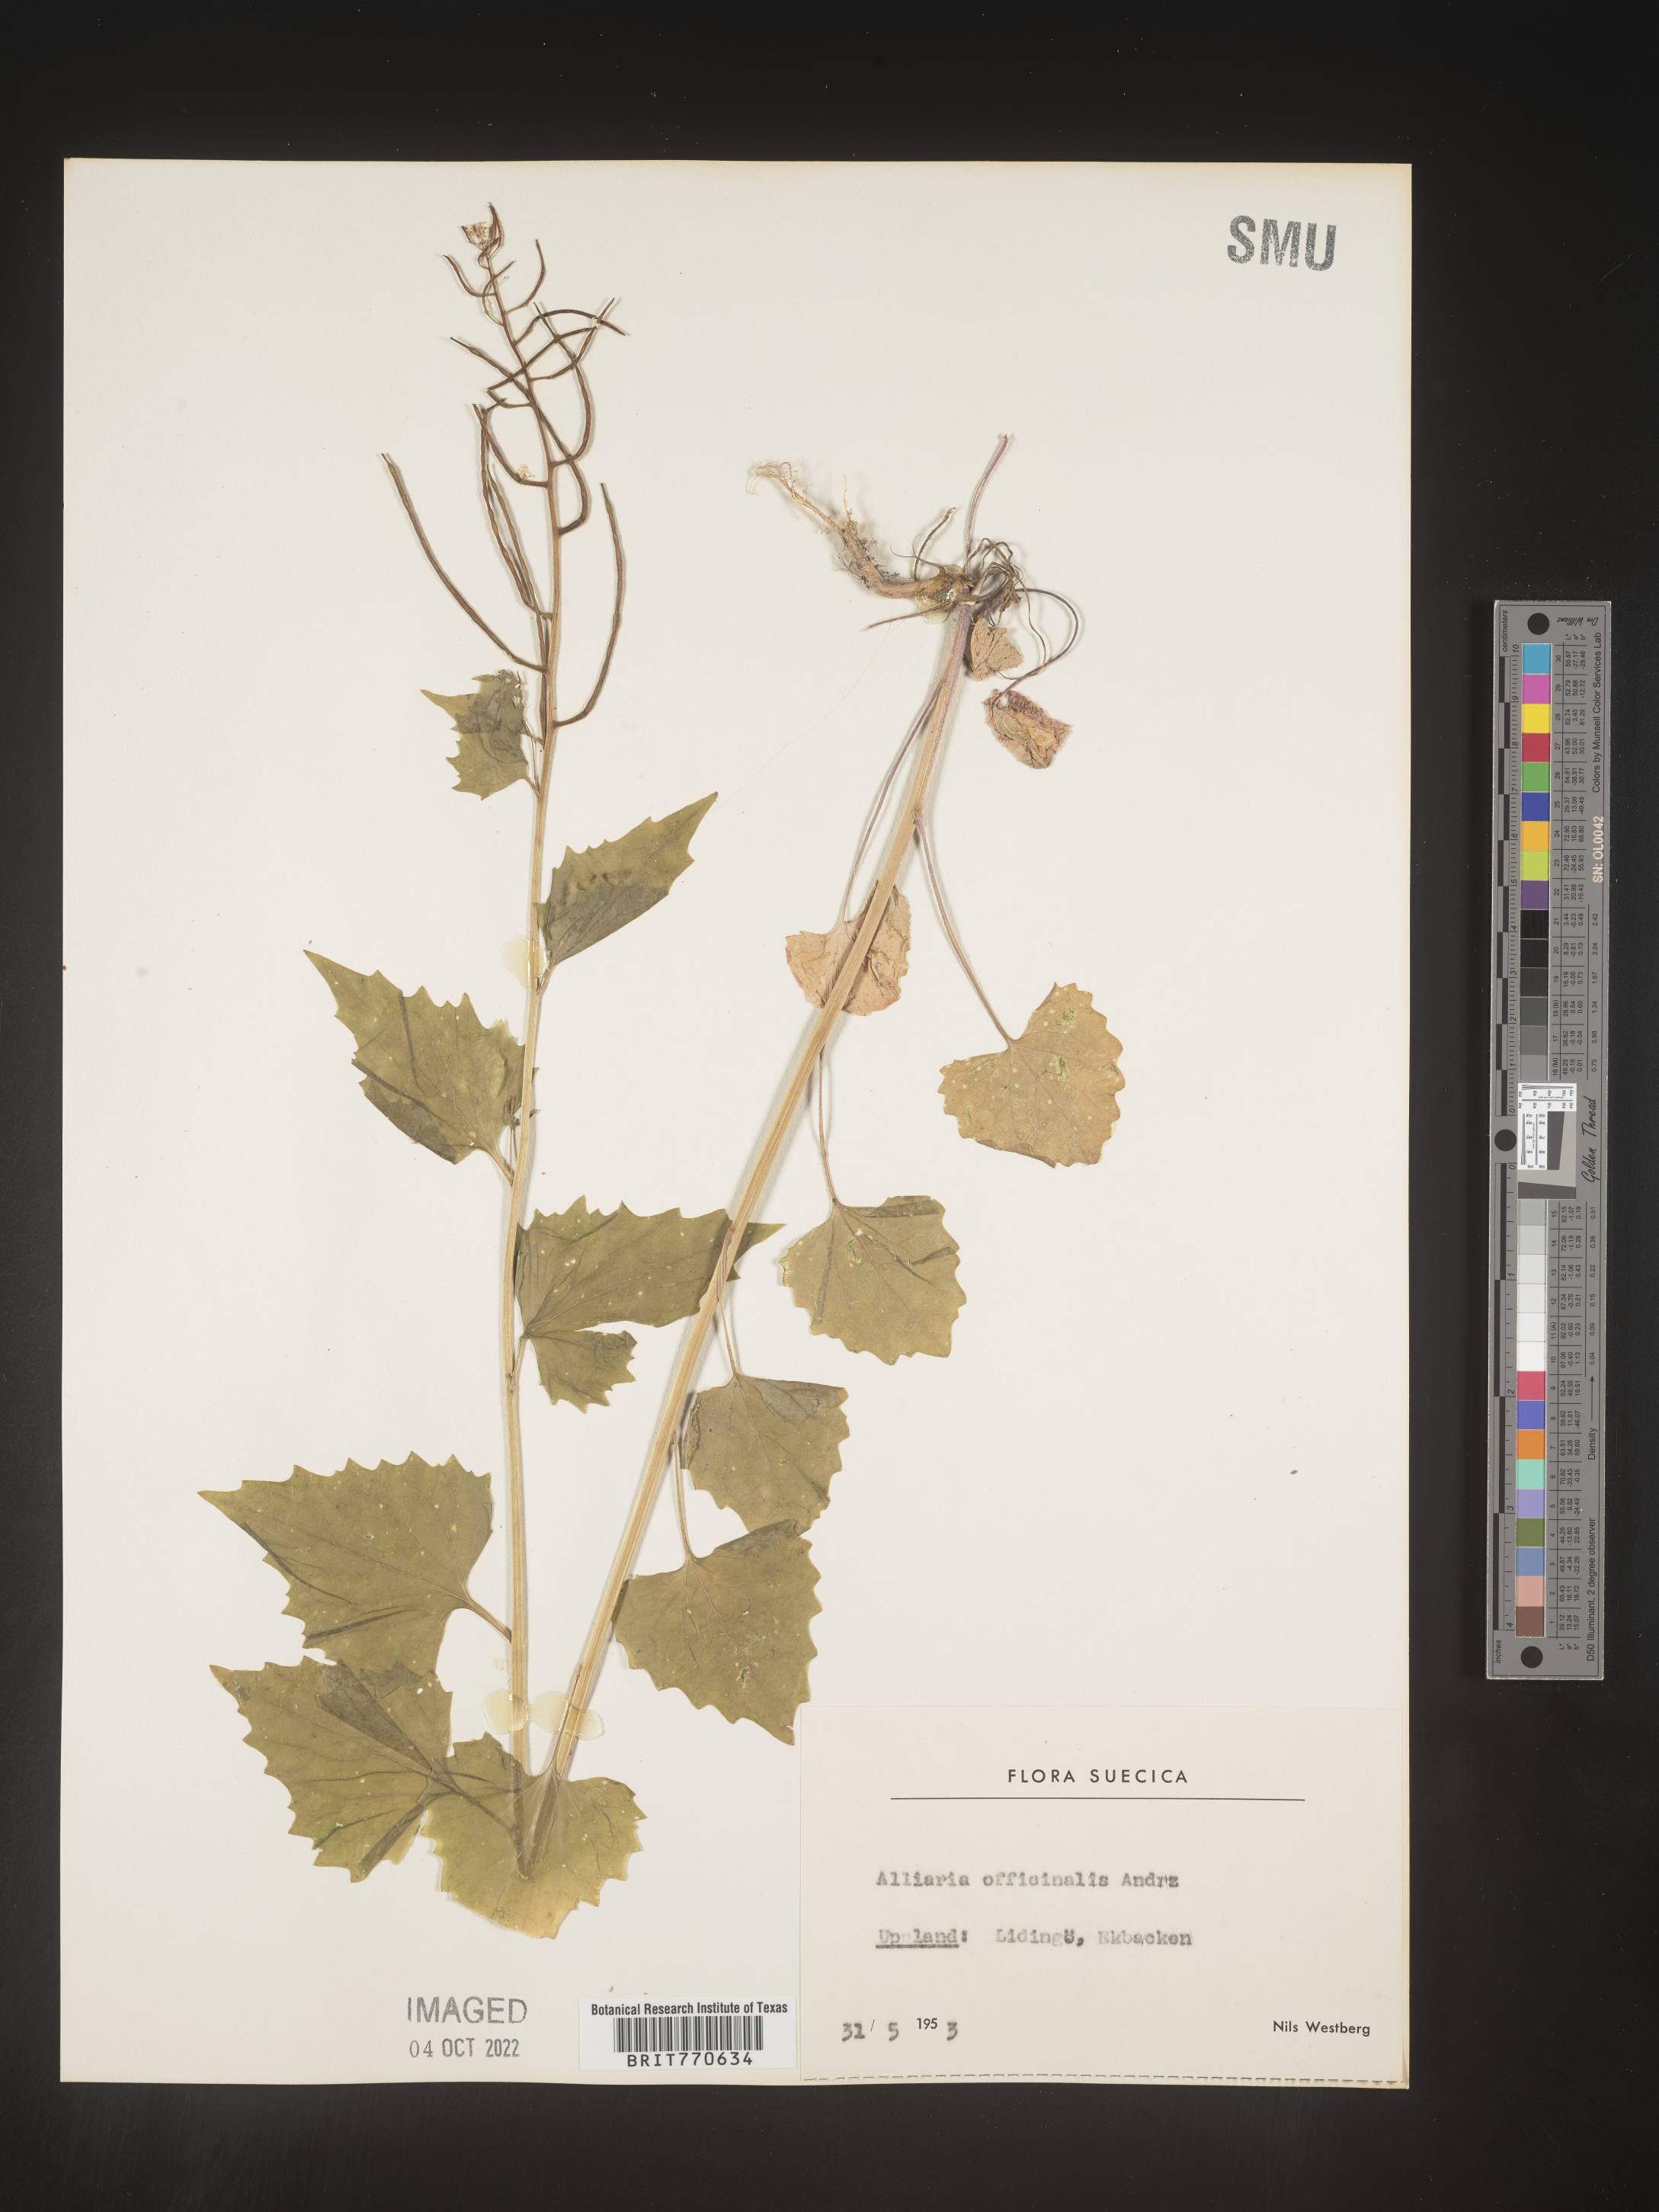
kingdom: Plantae
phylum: Tracheophyta
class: Magnoliopsida
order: Brassicales
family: Brassicaceae
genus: Alliaria
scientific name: Alliaria
